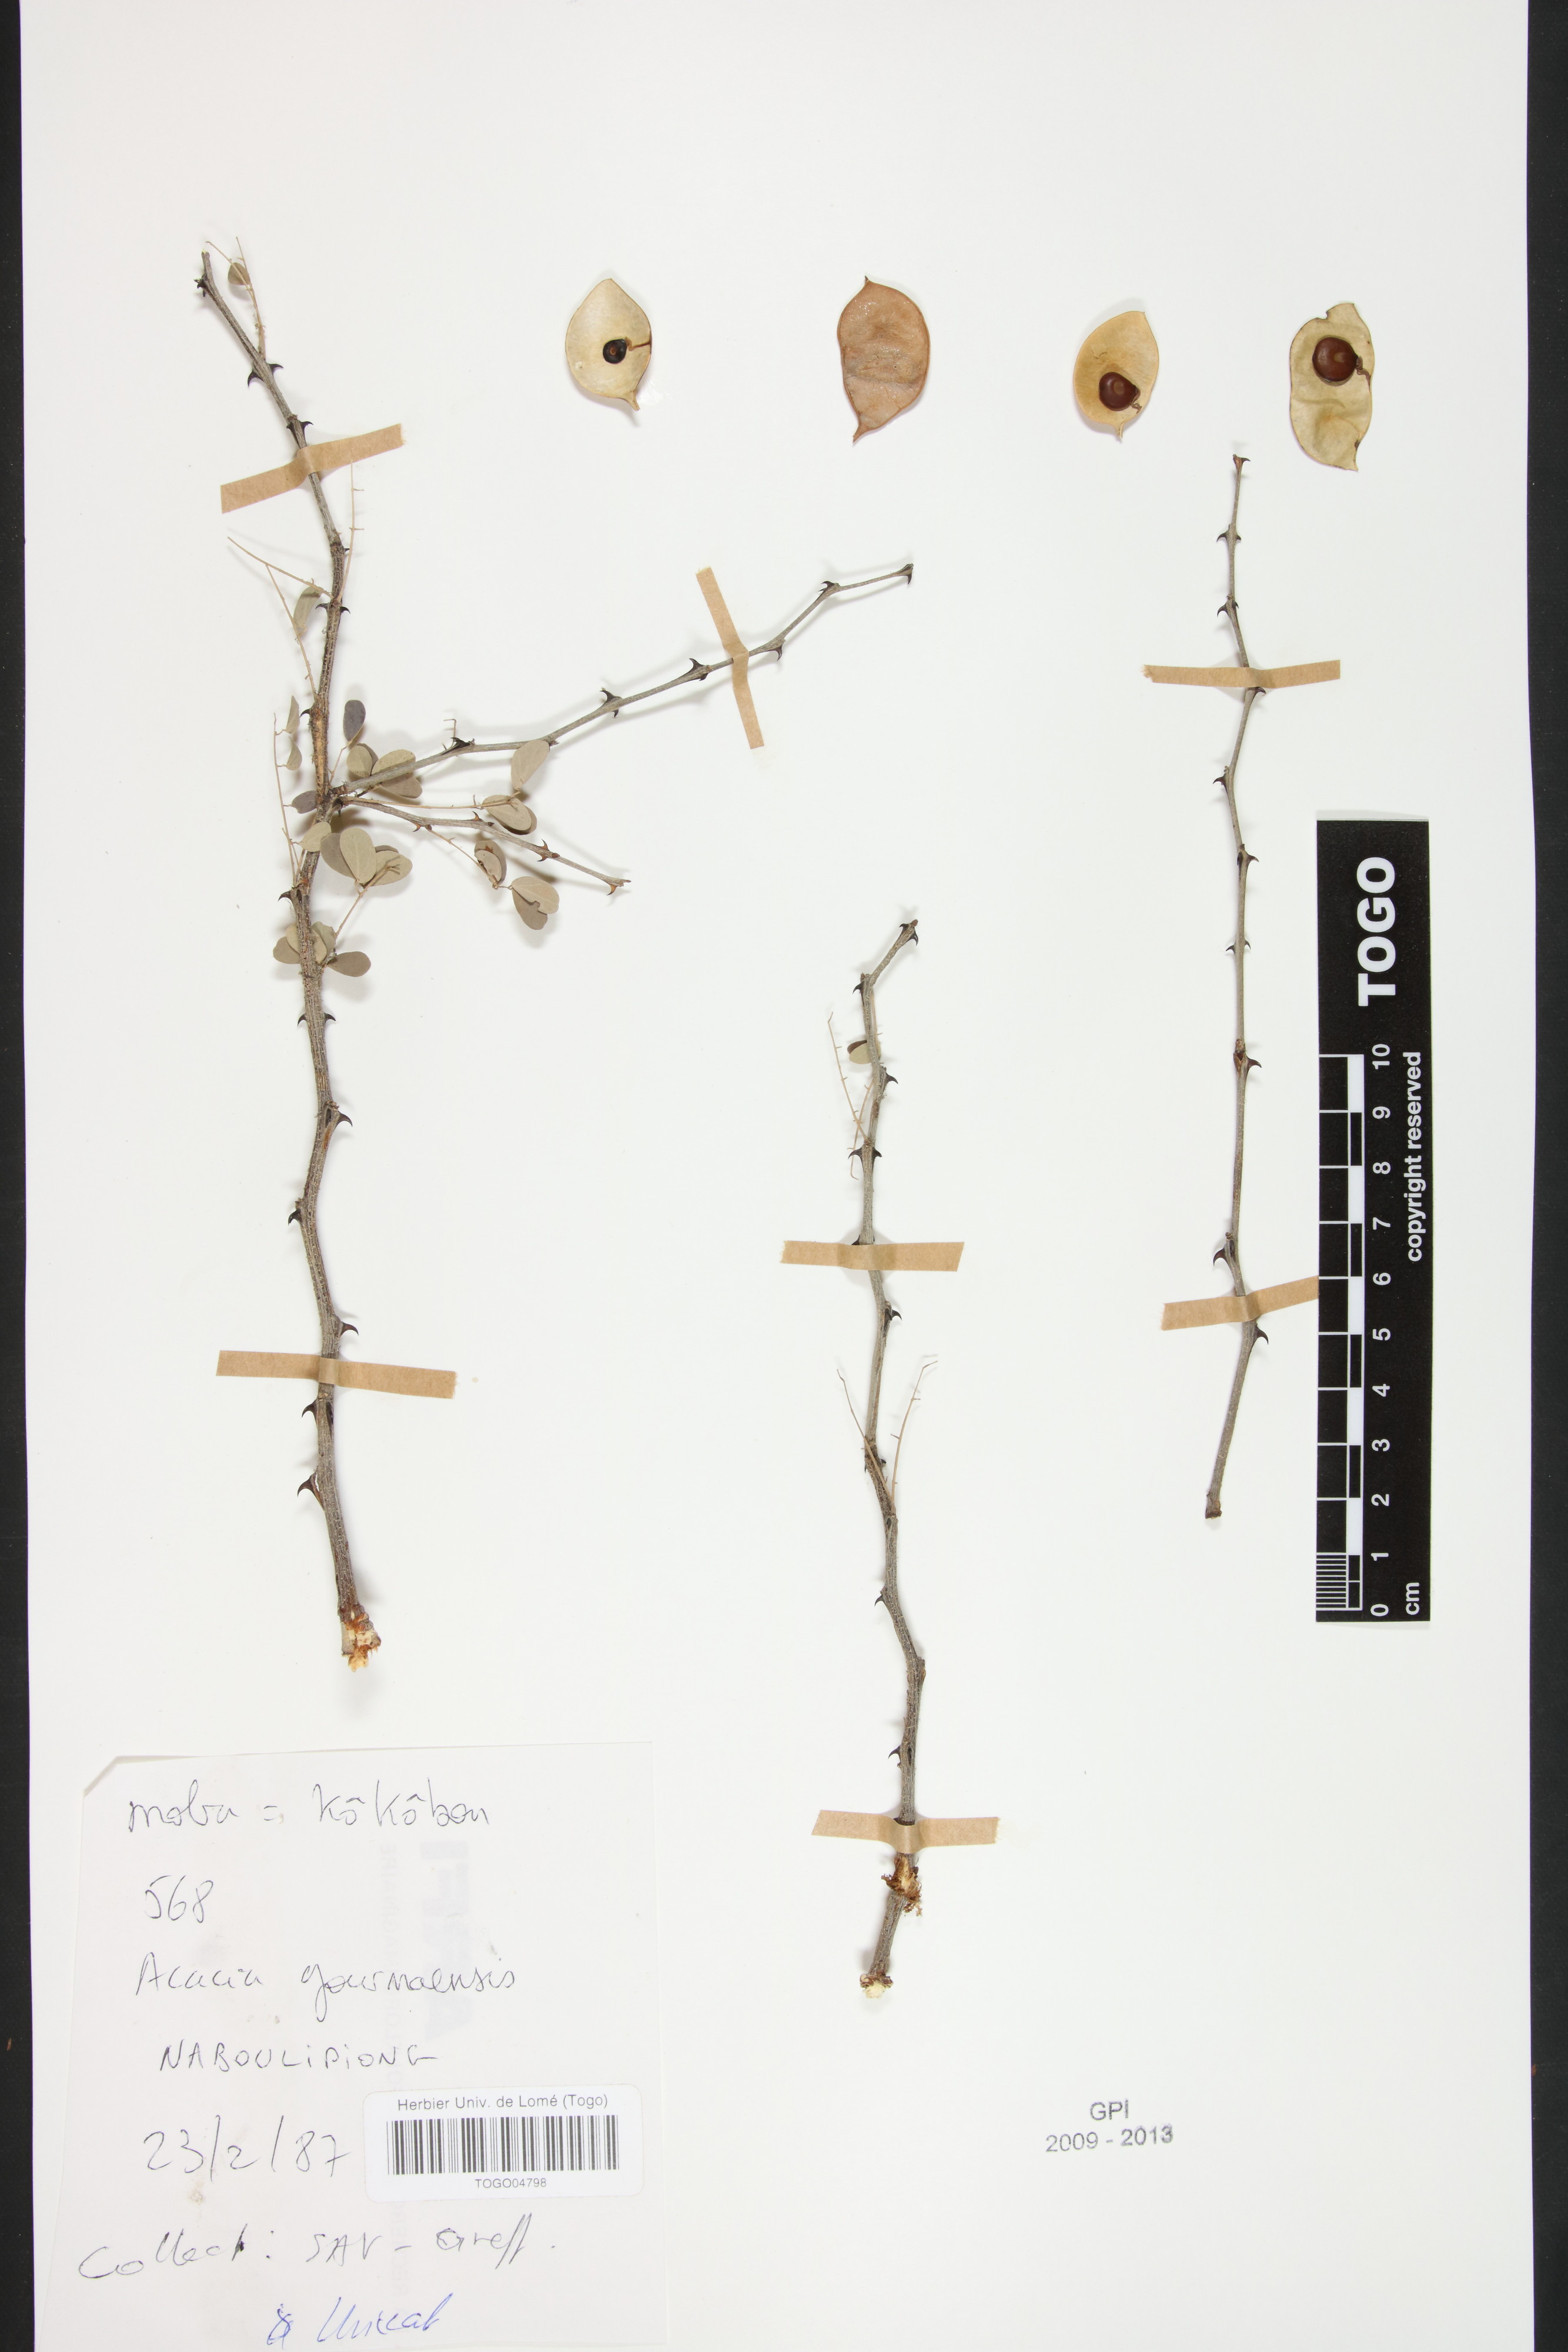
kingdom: Plantae
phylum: Tracheophyta
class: Magnoliopsida
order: Fabales
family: Fabaceae
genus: Senegalia
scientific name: Senegalia gourmaensis
